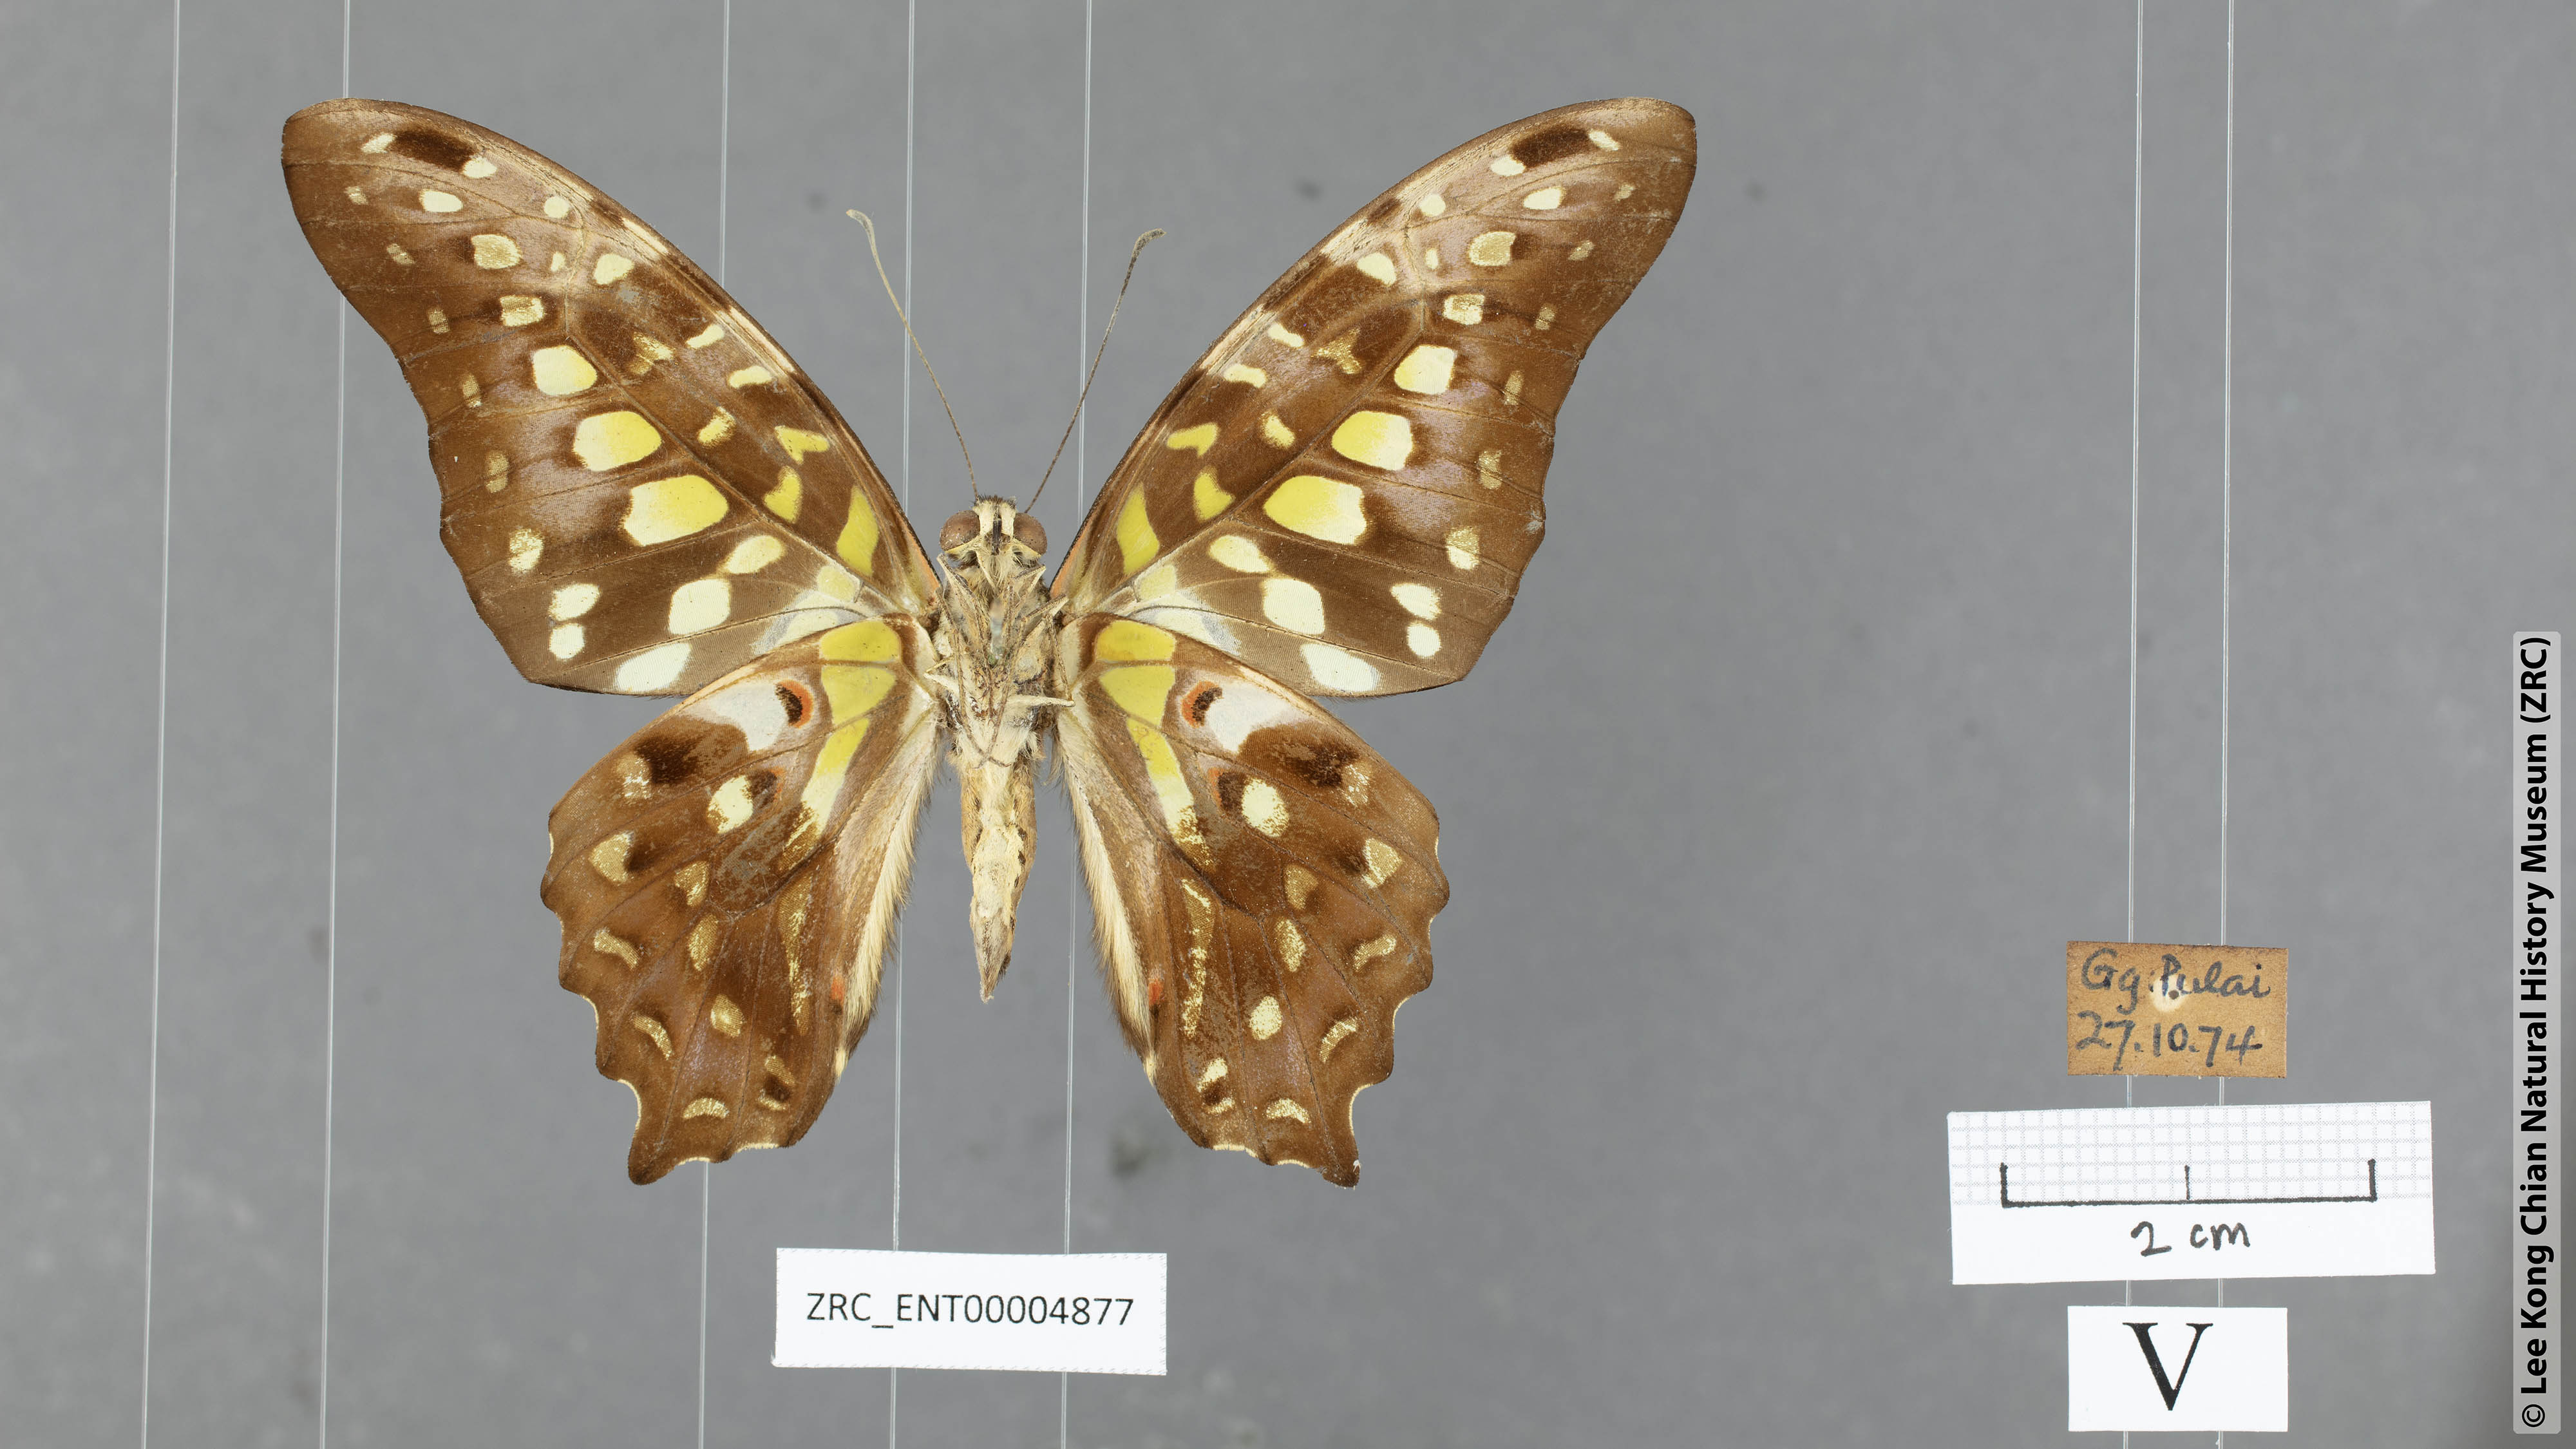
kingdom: Animalia
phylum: Arthropoda
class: Insecta
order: Lepidoptera
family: Papilionidae
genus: Graphium
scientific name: Graphium agamemnon
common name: Tailed jay
